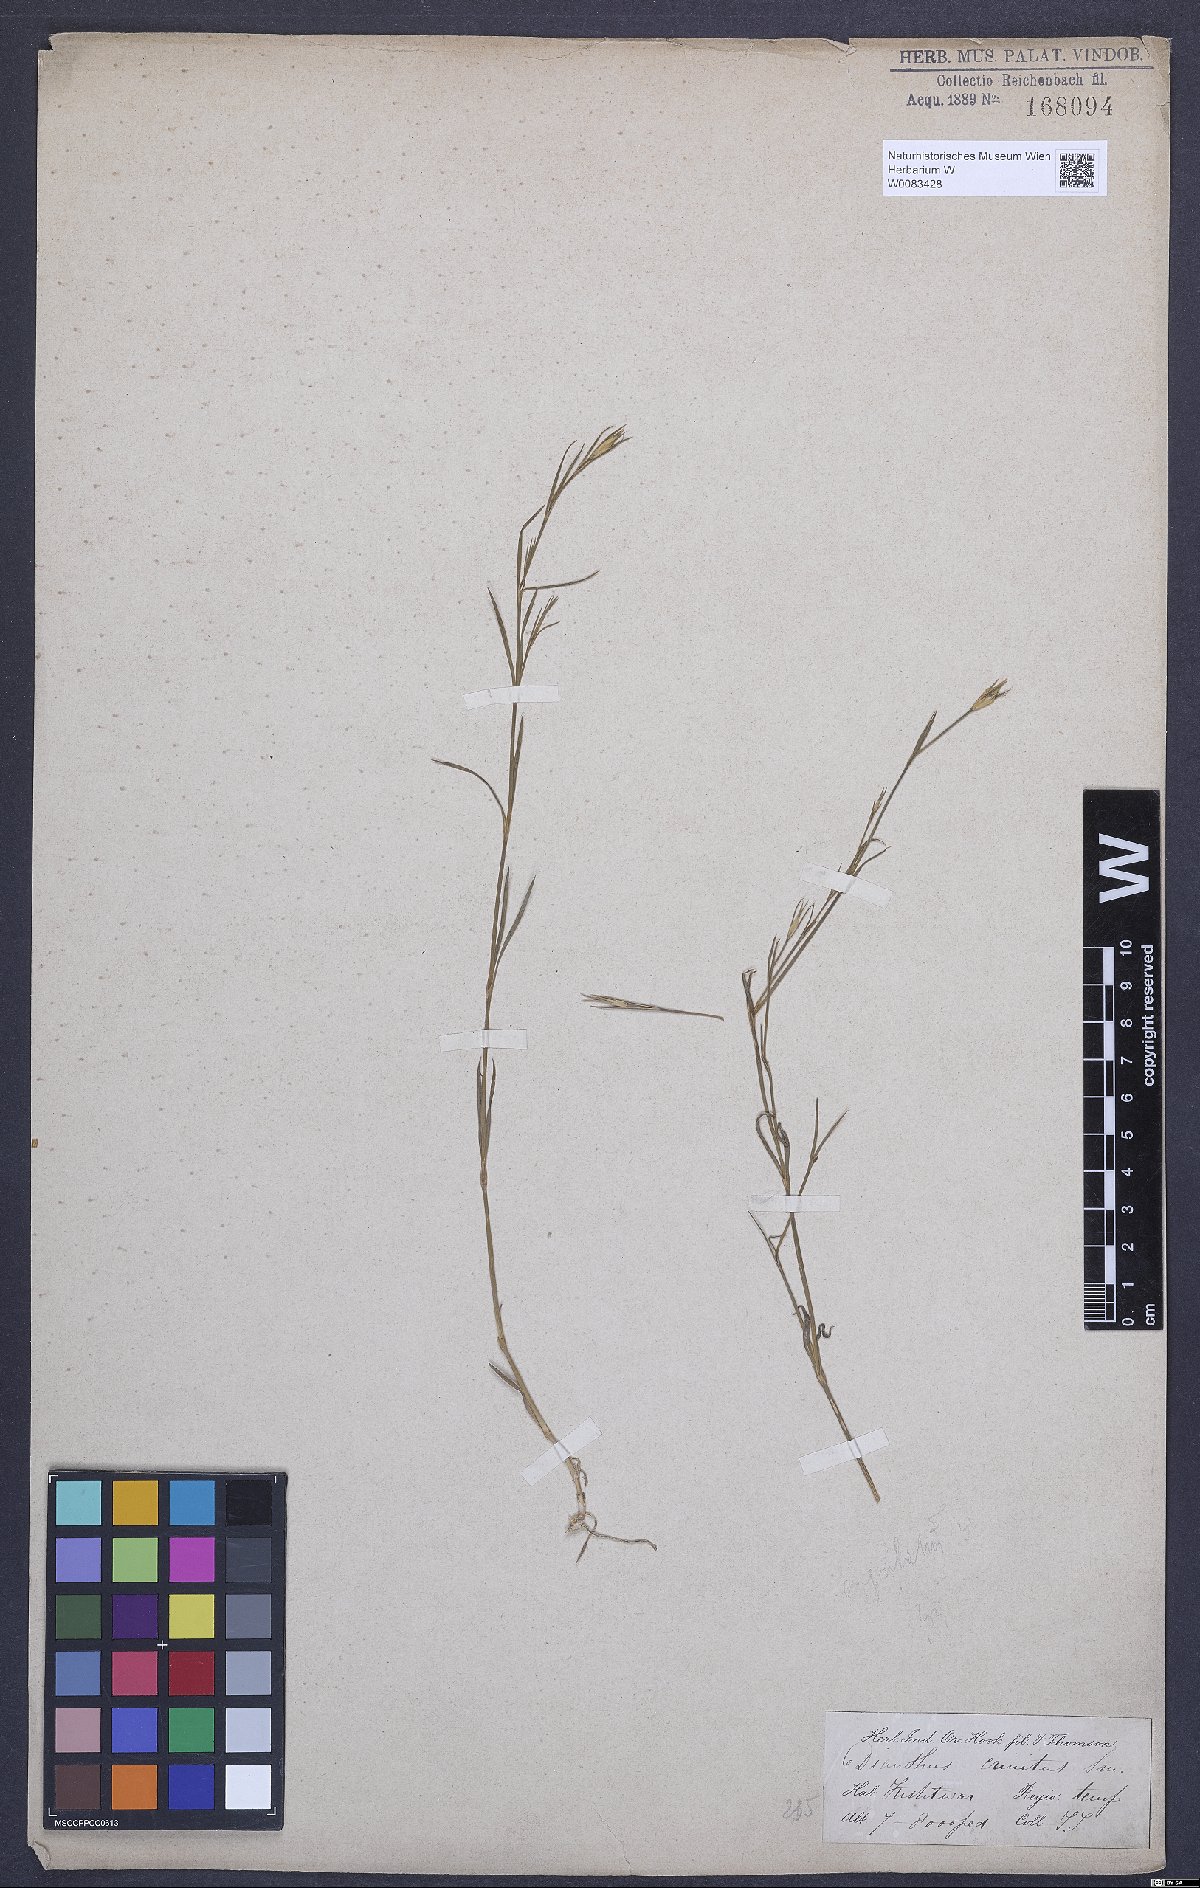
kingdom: Plantae
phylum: Tracheophyta
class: Magnoliopsida
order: Caryophyllales
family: Caryophyllaceae
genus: Dianthus
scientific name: Dianthus crinitus
